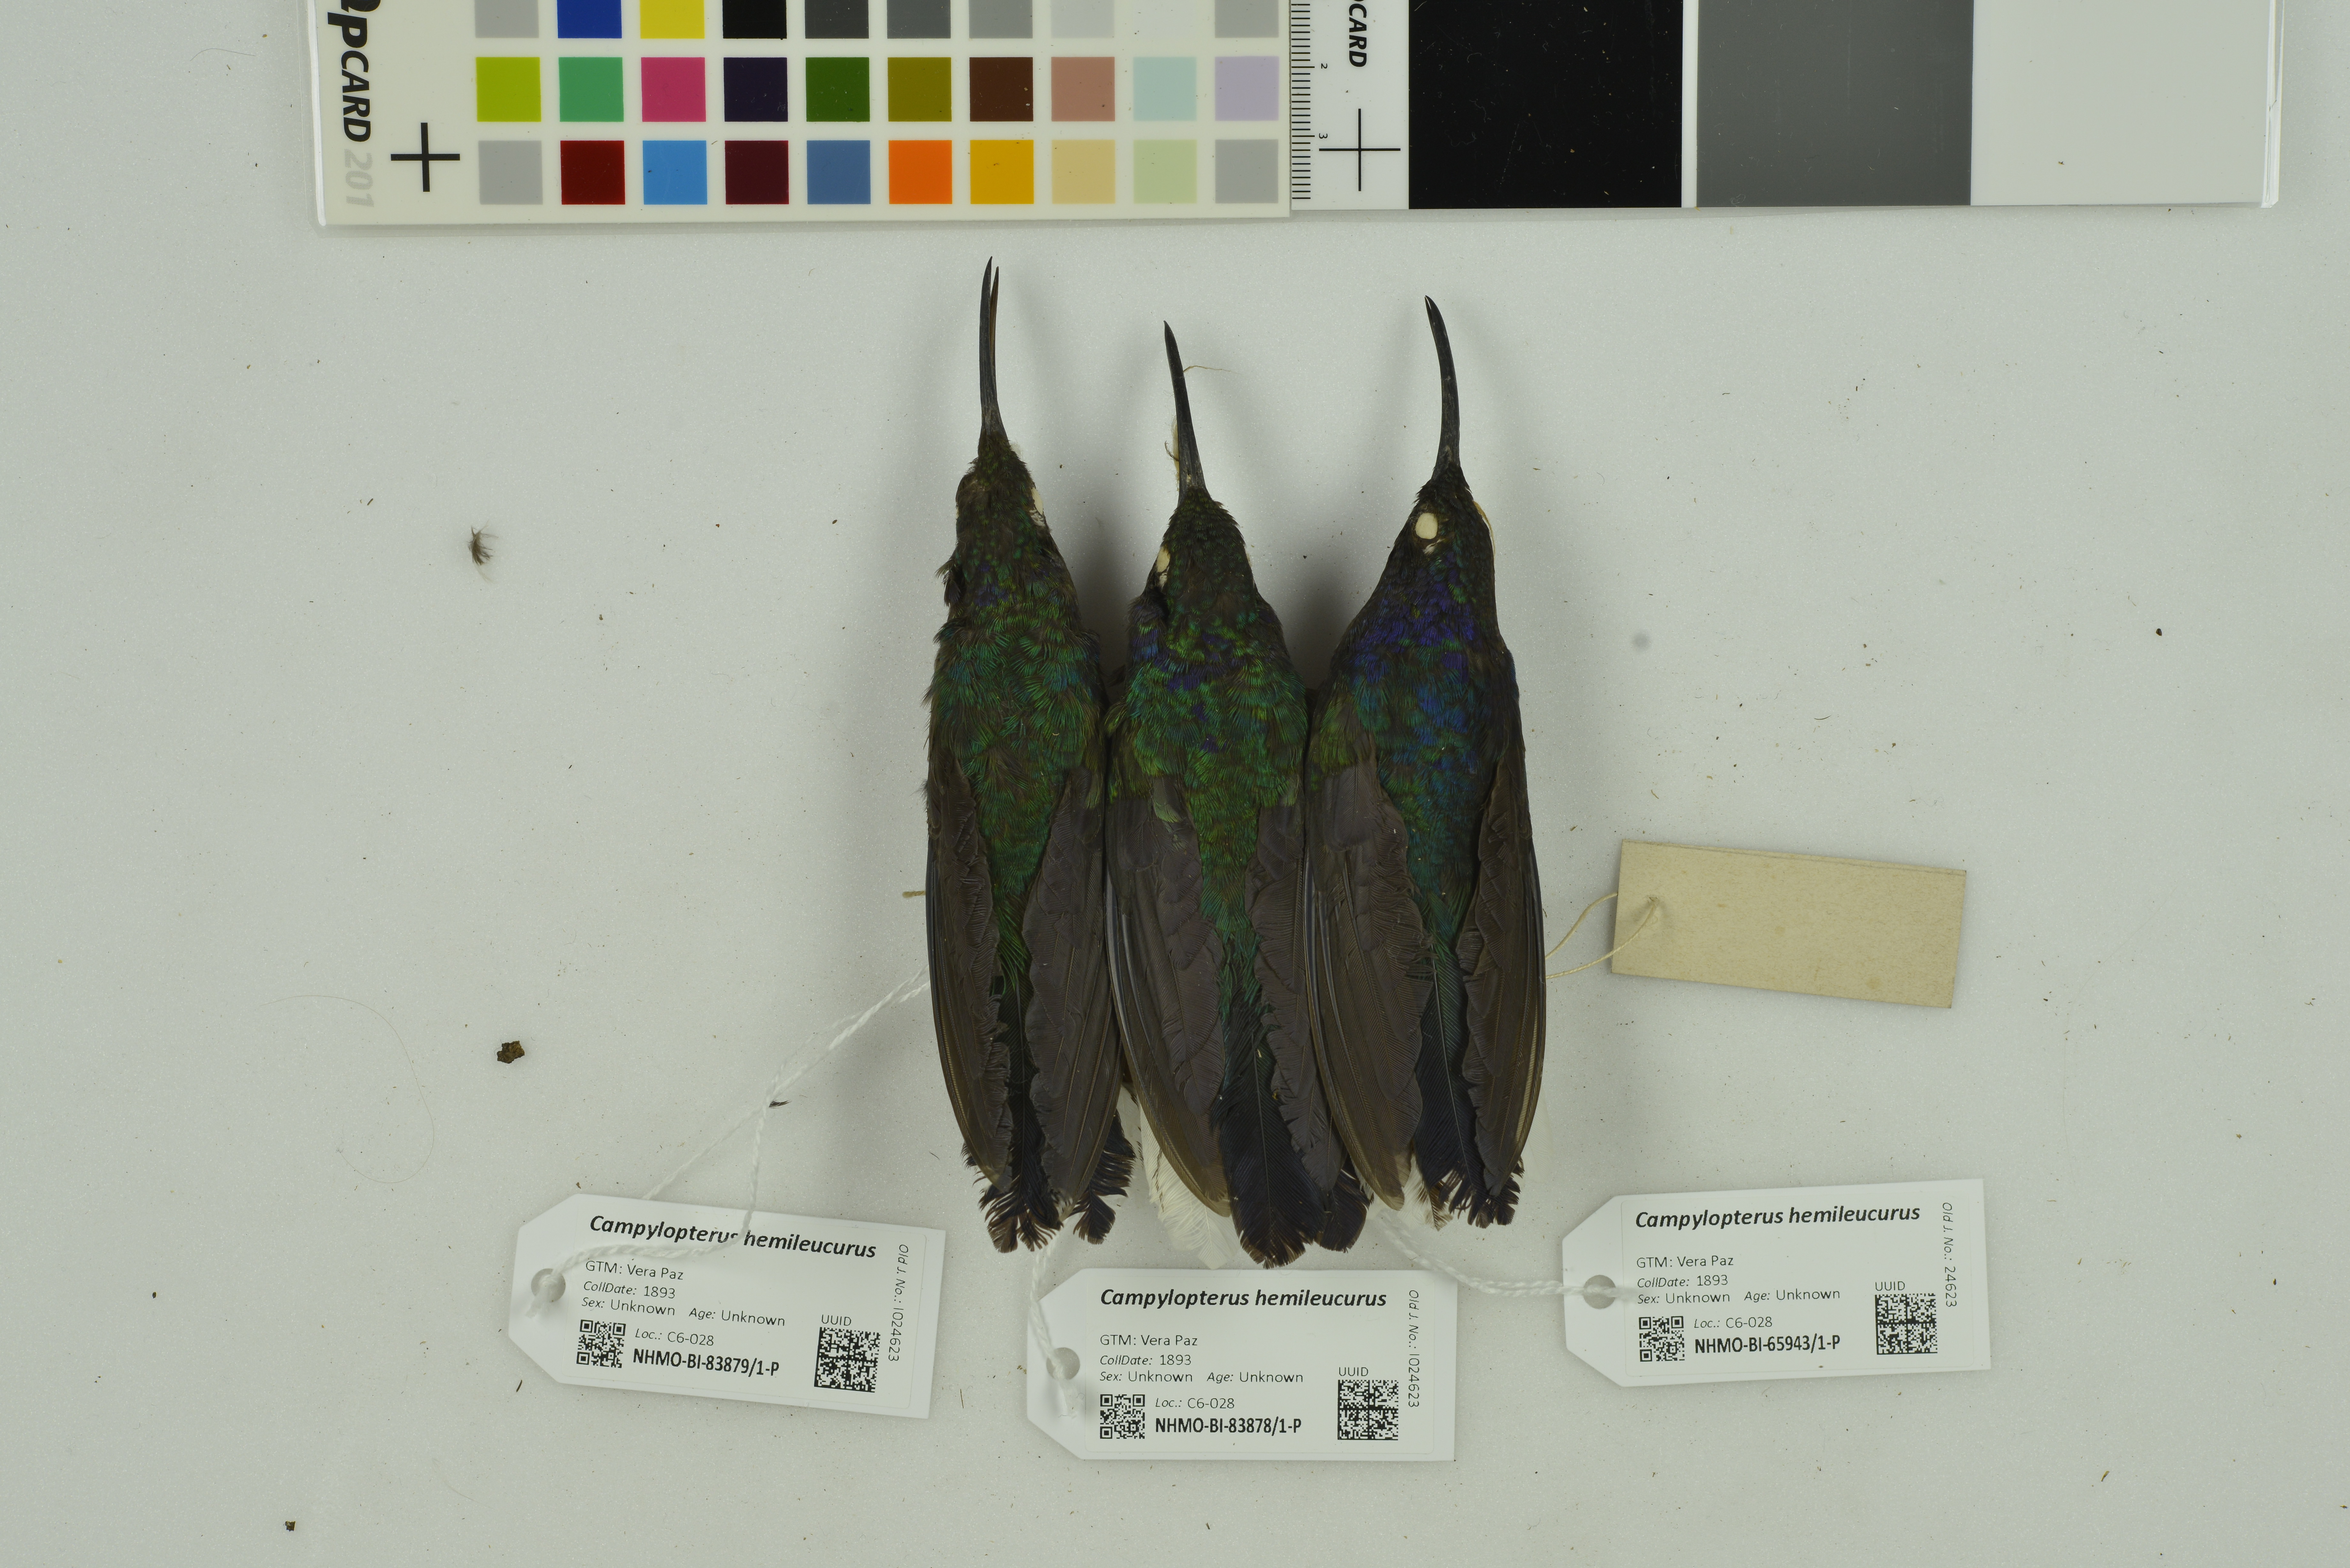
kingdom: Animalia
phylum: Chordata
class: Aves
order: Apodiformes
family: Trochilidae
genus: Campylopterus
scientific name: Campylopterus hemileucurus
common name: Violet sabrewing
